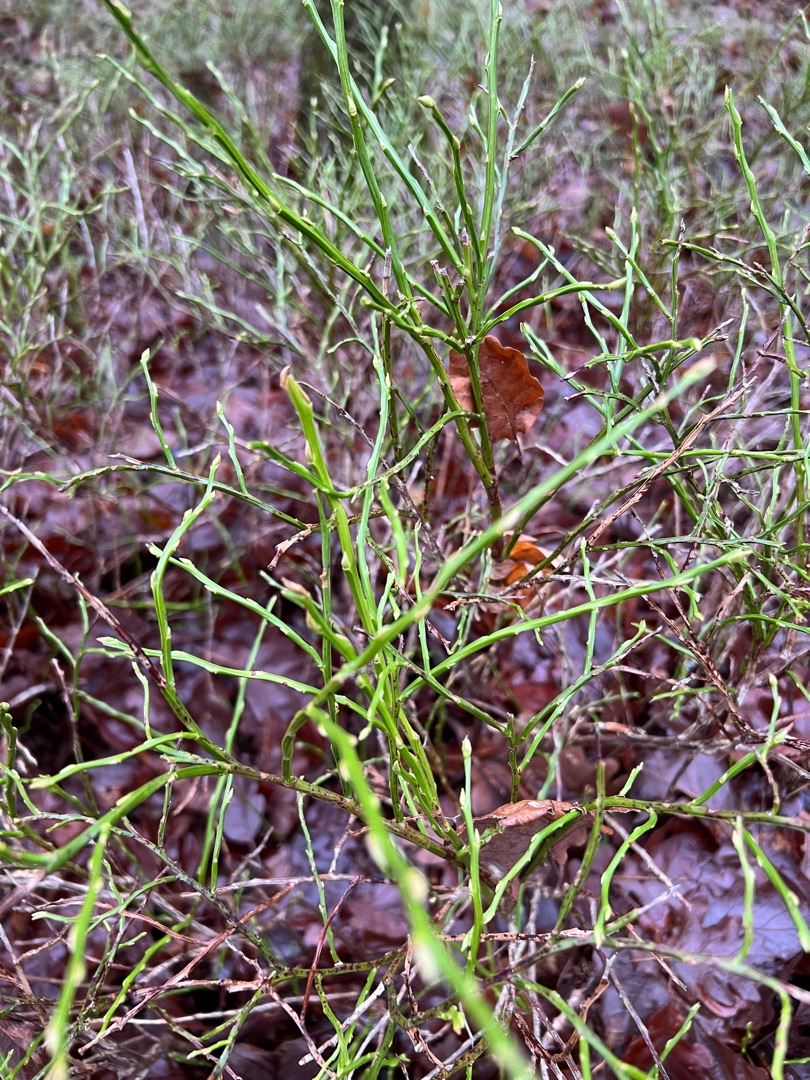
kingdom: Plantae
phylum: Tracheophyta
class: Magnoliopsida
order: Ericales
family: Ericaceae
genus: Vaccinium
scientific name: Vaccinium myrtillus
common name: Blåbær
